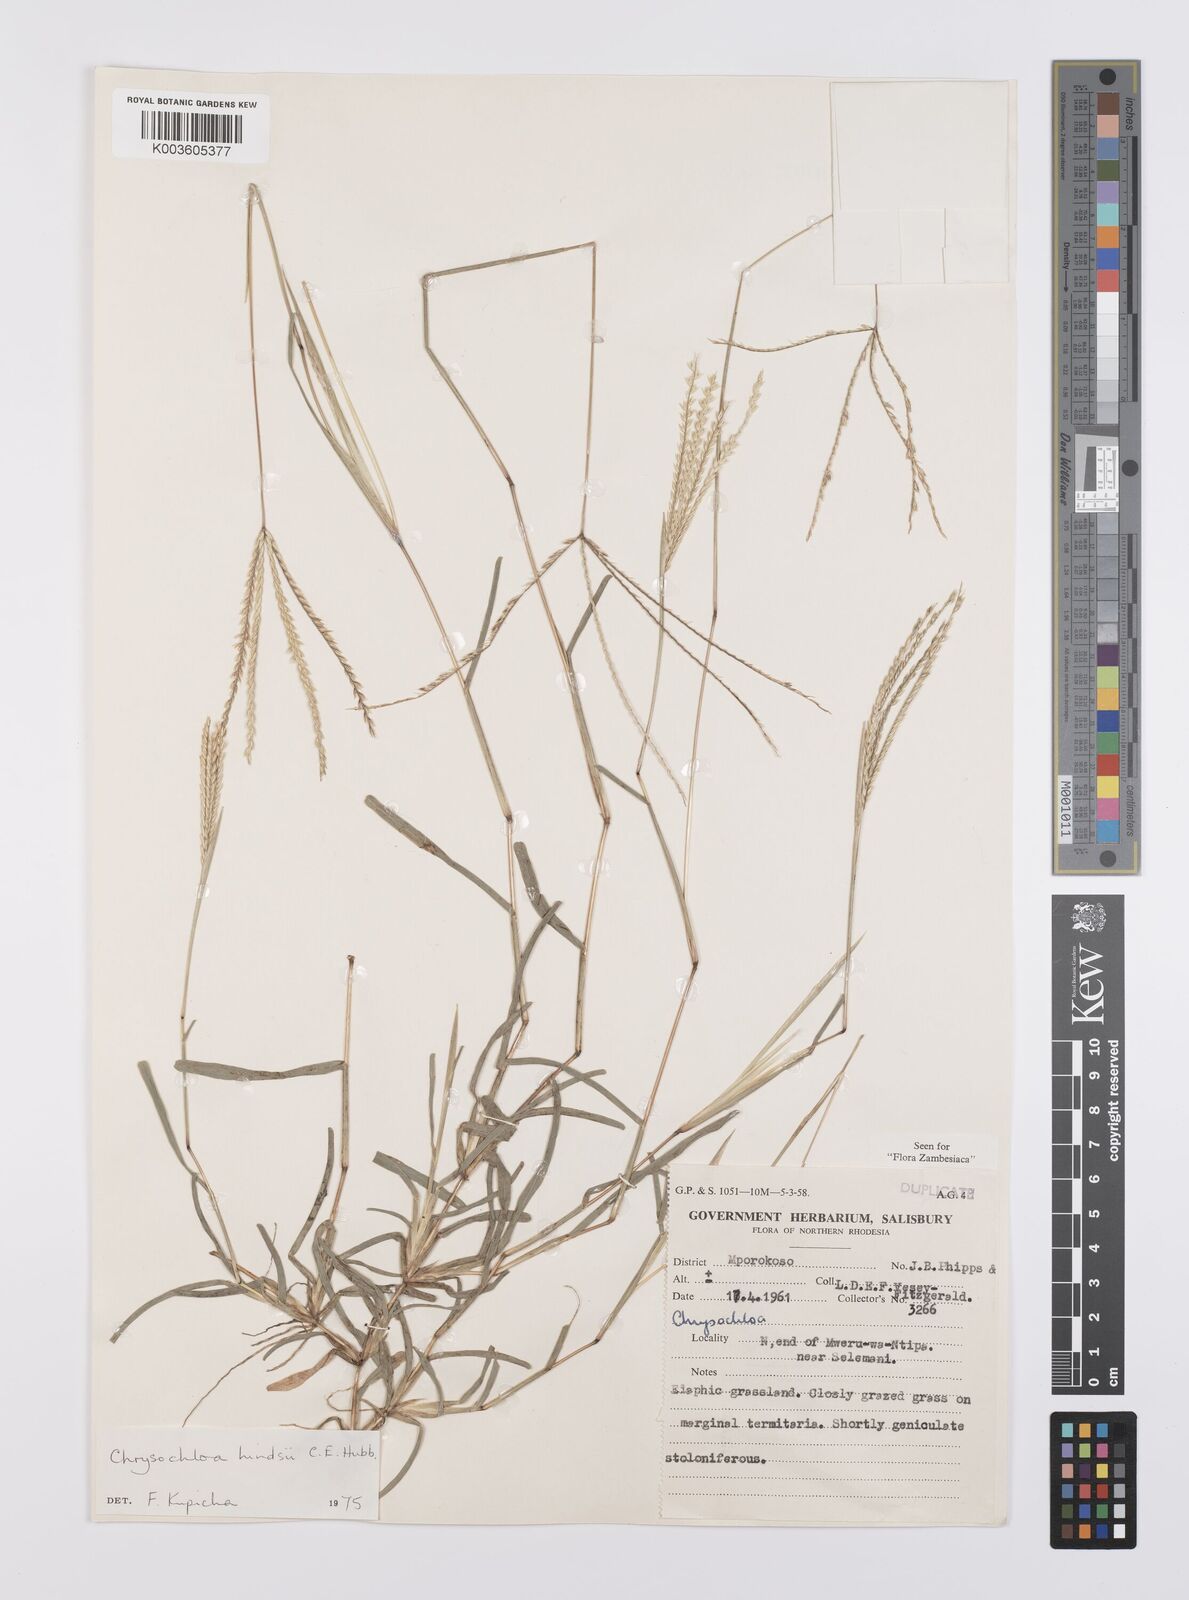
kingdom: Plantae
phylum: Tracheophyta
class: Liliopsida
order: Poales
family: Poaceae
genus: Chrysochloa
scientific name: Chrysochloa hindsii
